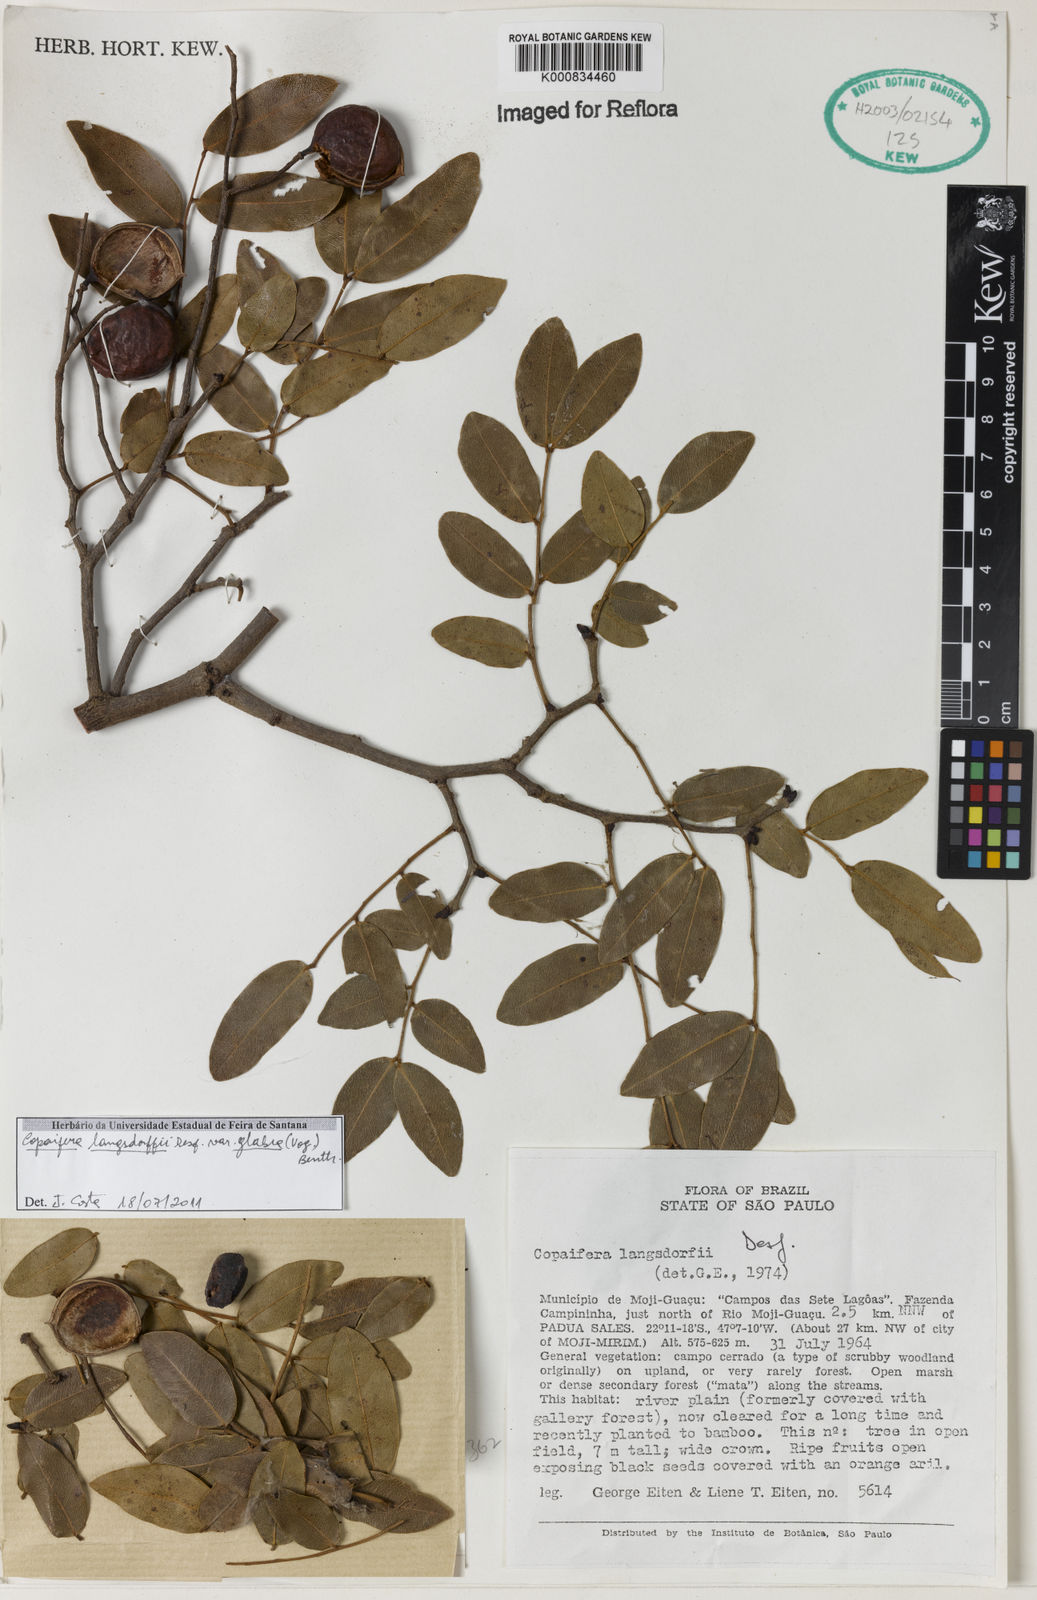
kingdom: Plantae
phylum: Tracheophyta
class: Magnoliopsida
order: Fabales
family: Fabaceae
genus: Copaifera
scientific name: Copaifera langsdorffii
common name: Brazilian diesel tree
